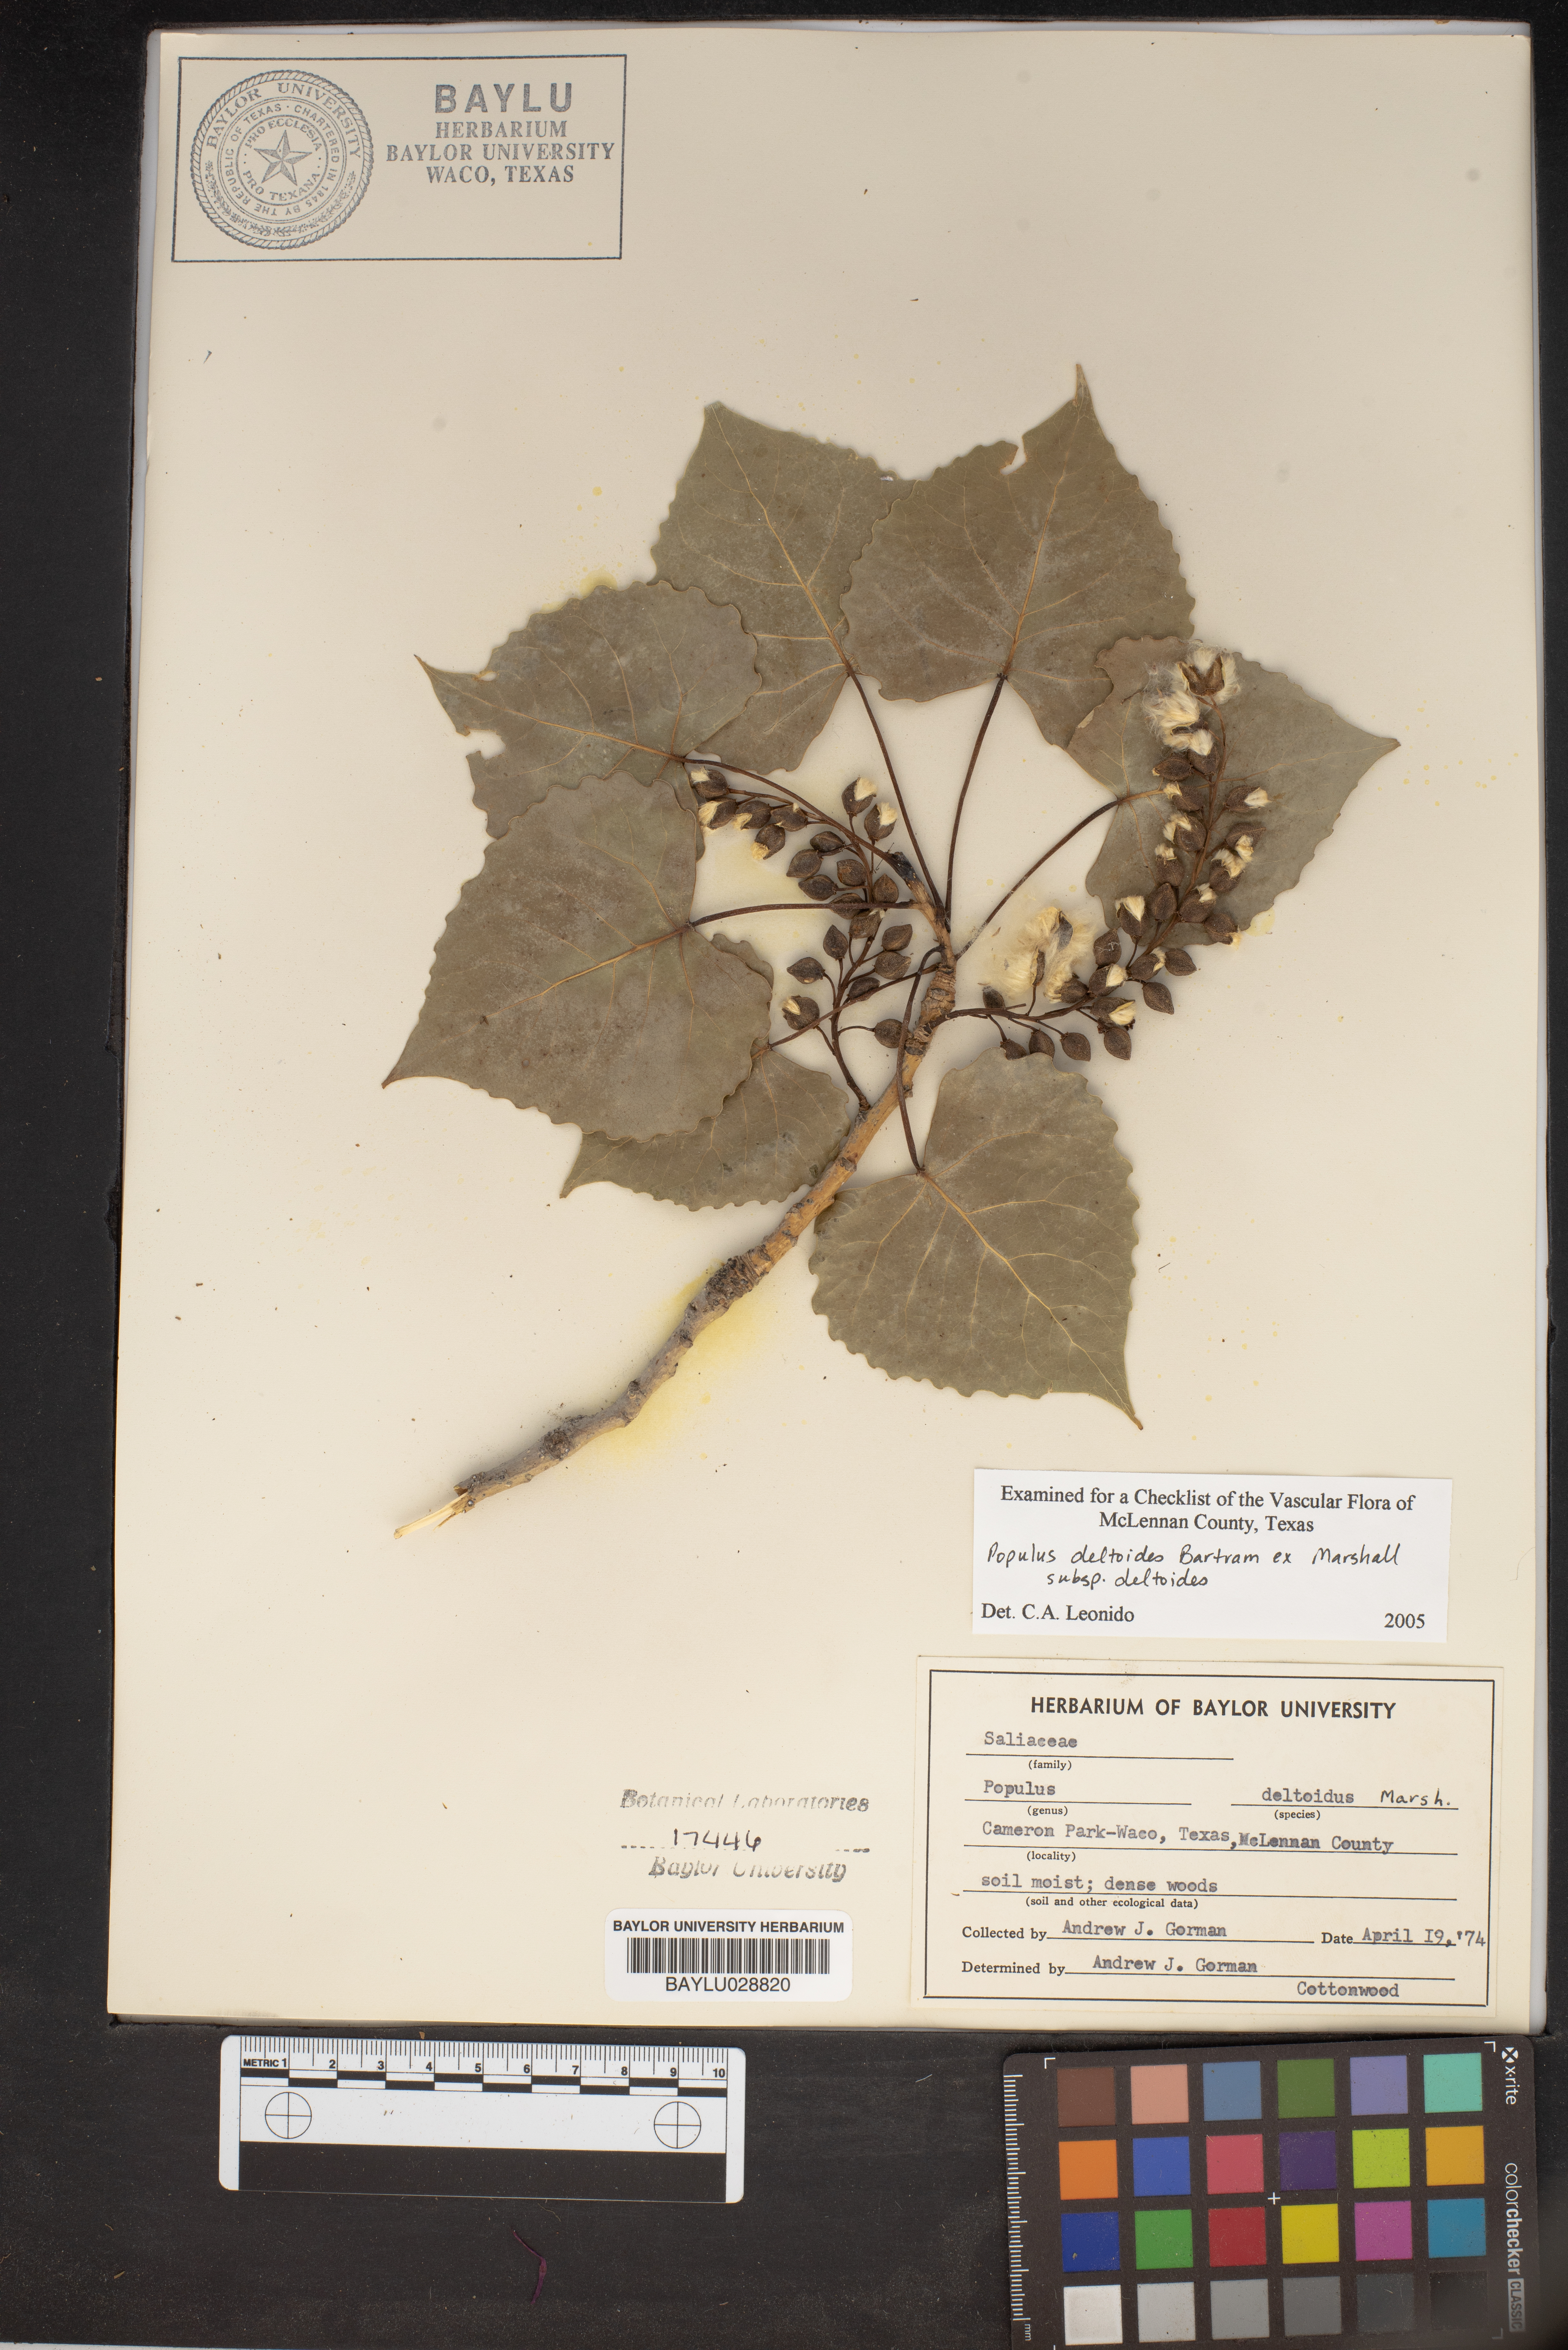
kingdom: Plantae
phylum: Tracheophyta
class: Magnoliopsida
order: Malpighiales
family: Salicaceae
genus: Populus
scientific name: Populus deltoides
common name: Eastern cottonwood
